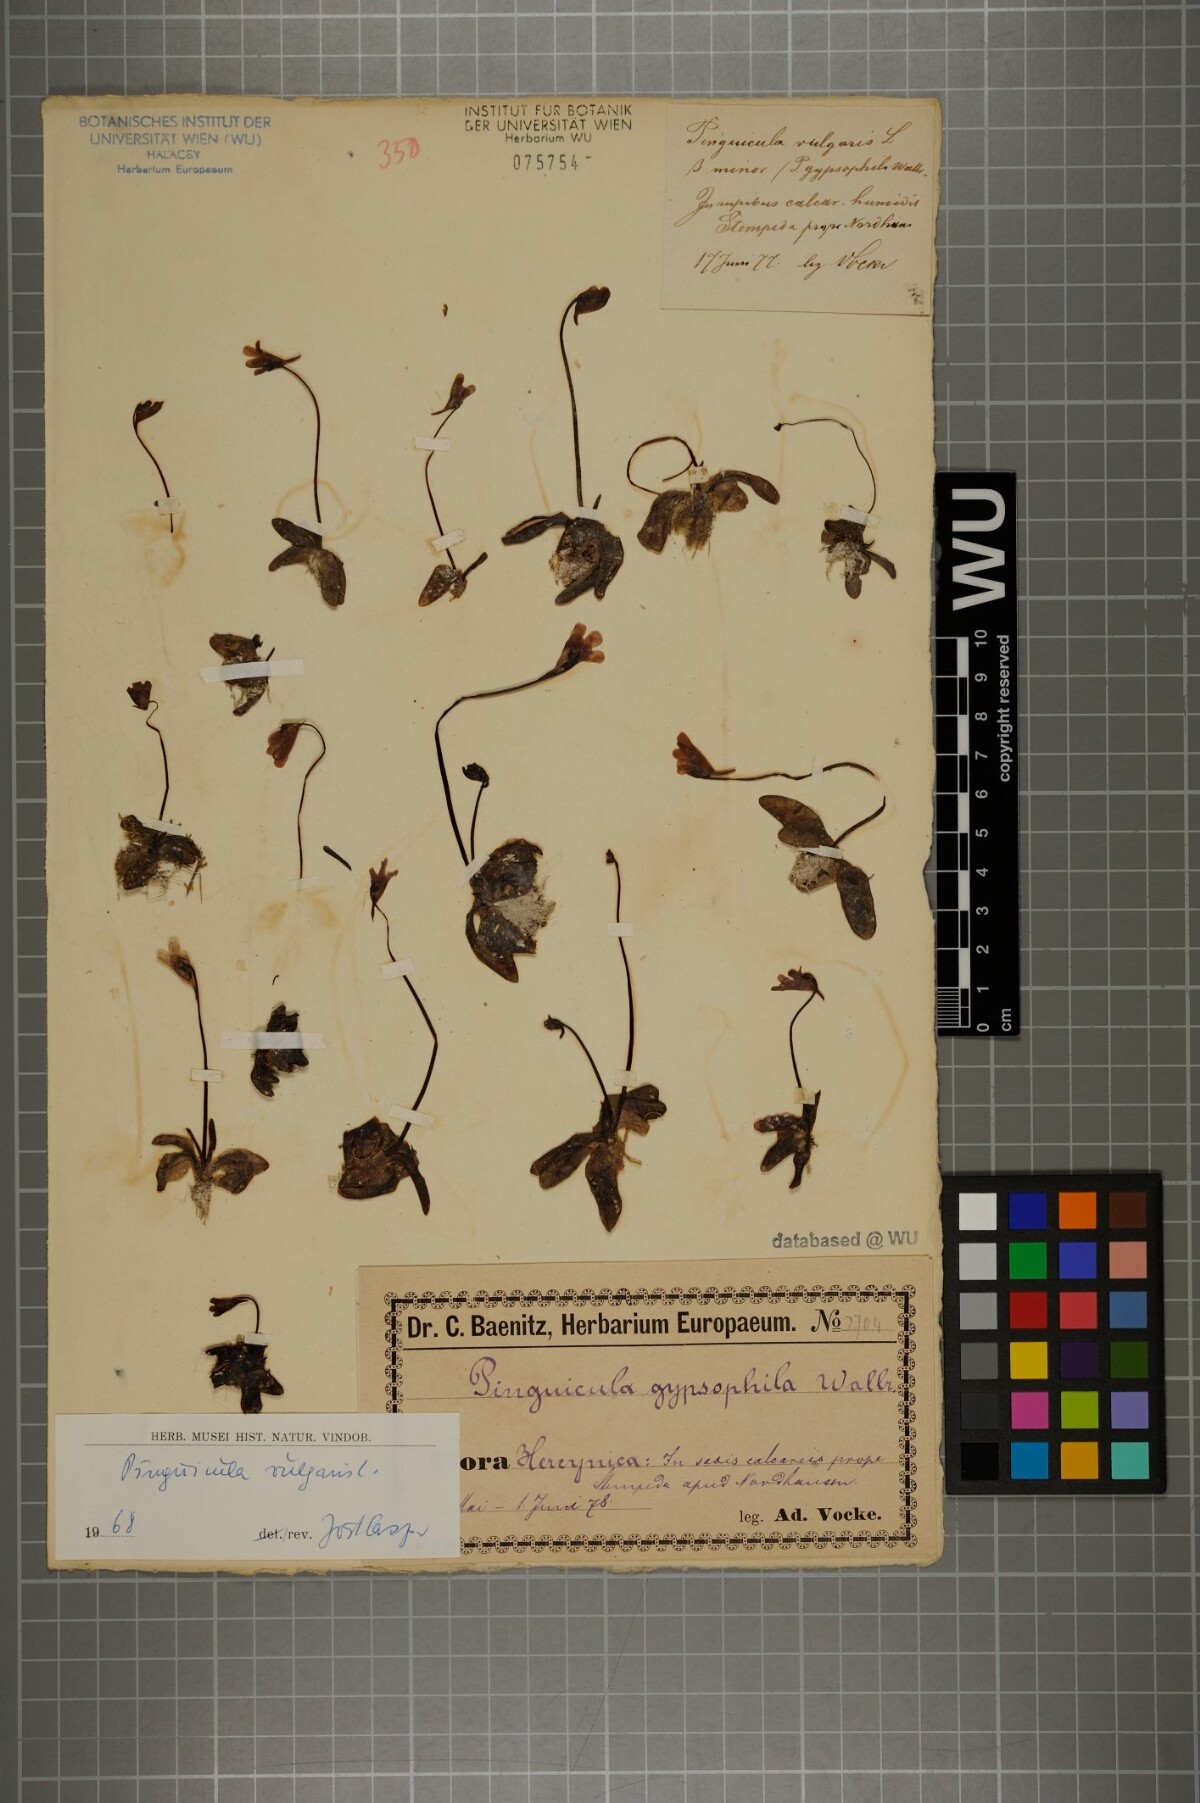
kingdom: Plantae
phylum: Tracheophyta
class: Magnoliopsida
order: Lamiales
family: Lentibulariaceae
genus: Pinguicula
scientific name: Pinguicula vulgaris
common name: Common butterwort
